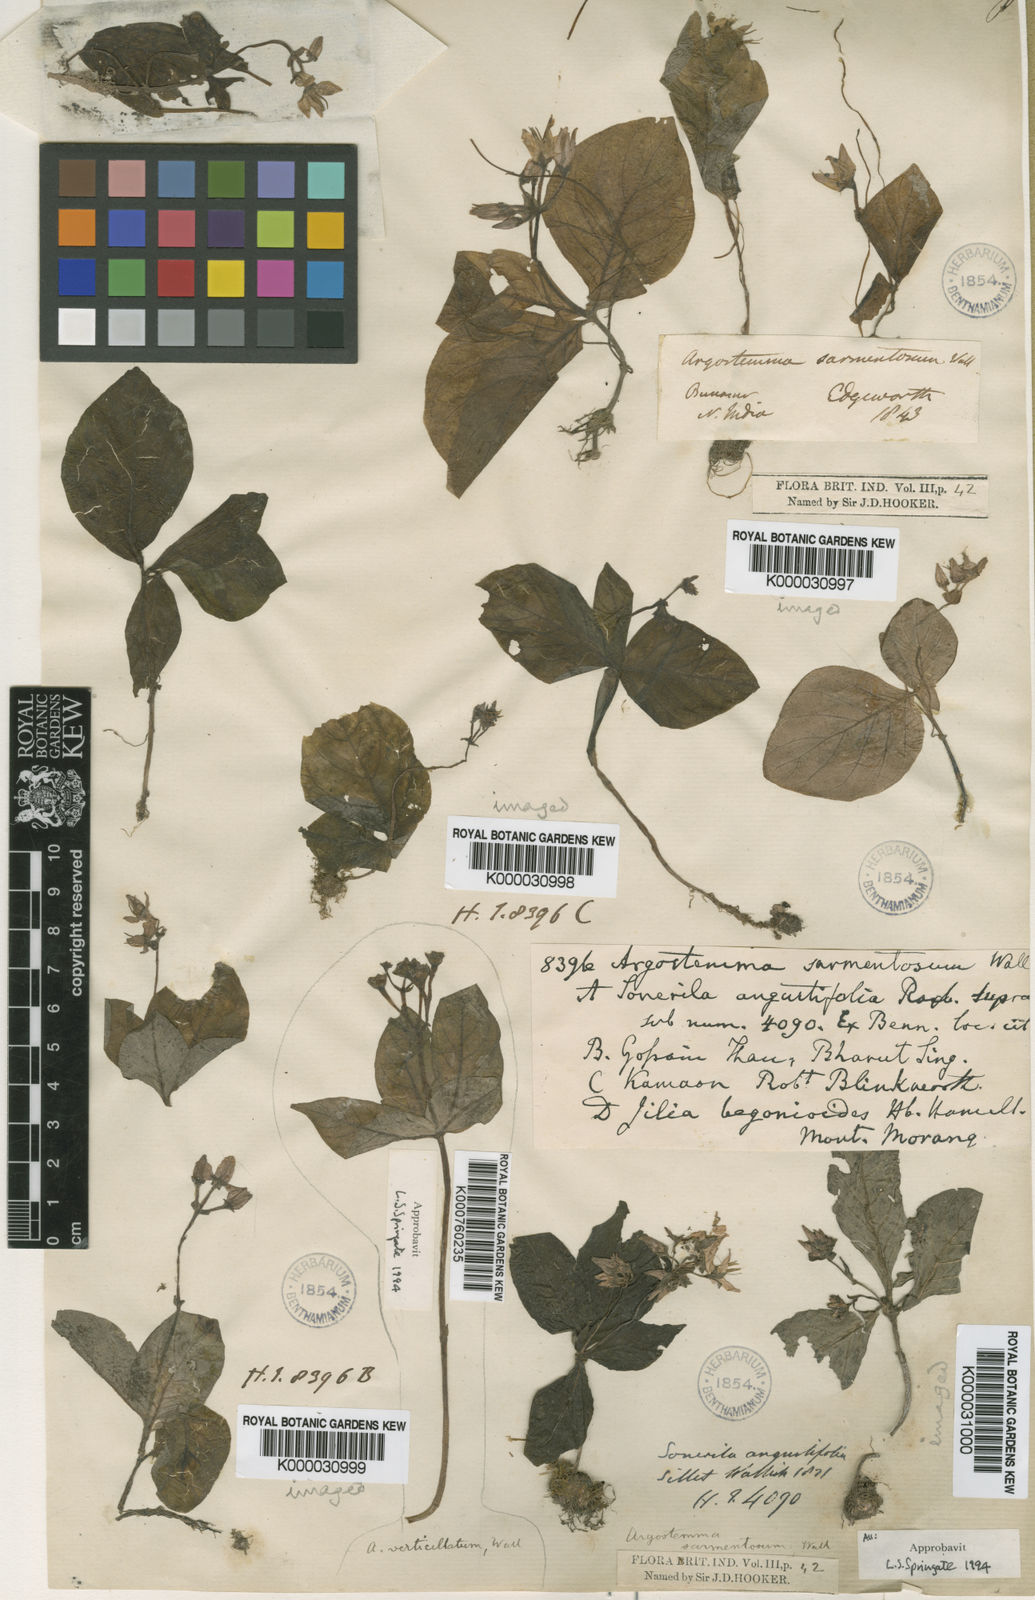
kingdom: Plantae
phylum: Tracheophyta
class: Magnoliopsida
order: Gentianales
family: Rubiaceae
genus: Argostemma
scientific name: Argostemma sarmentosum
